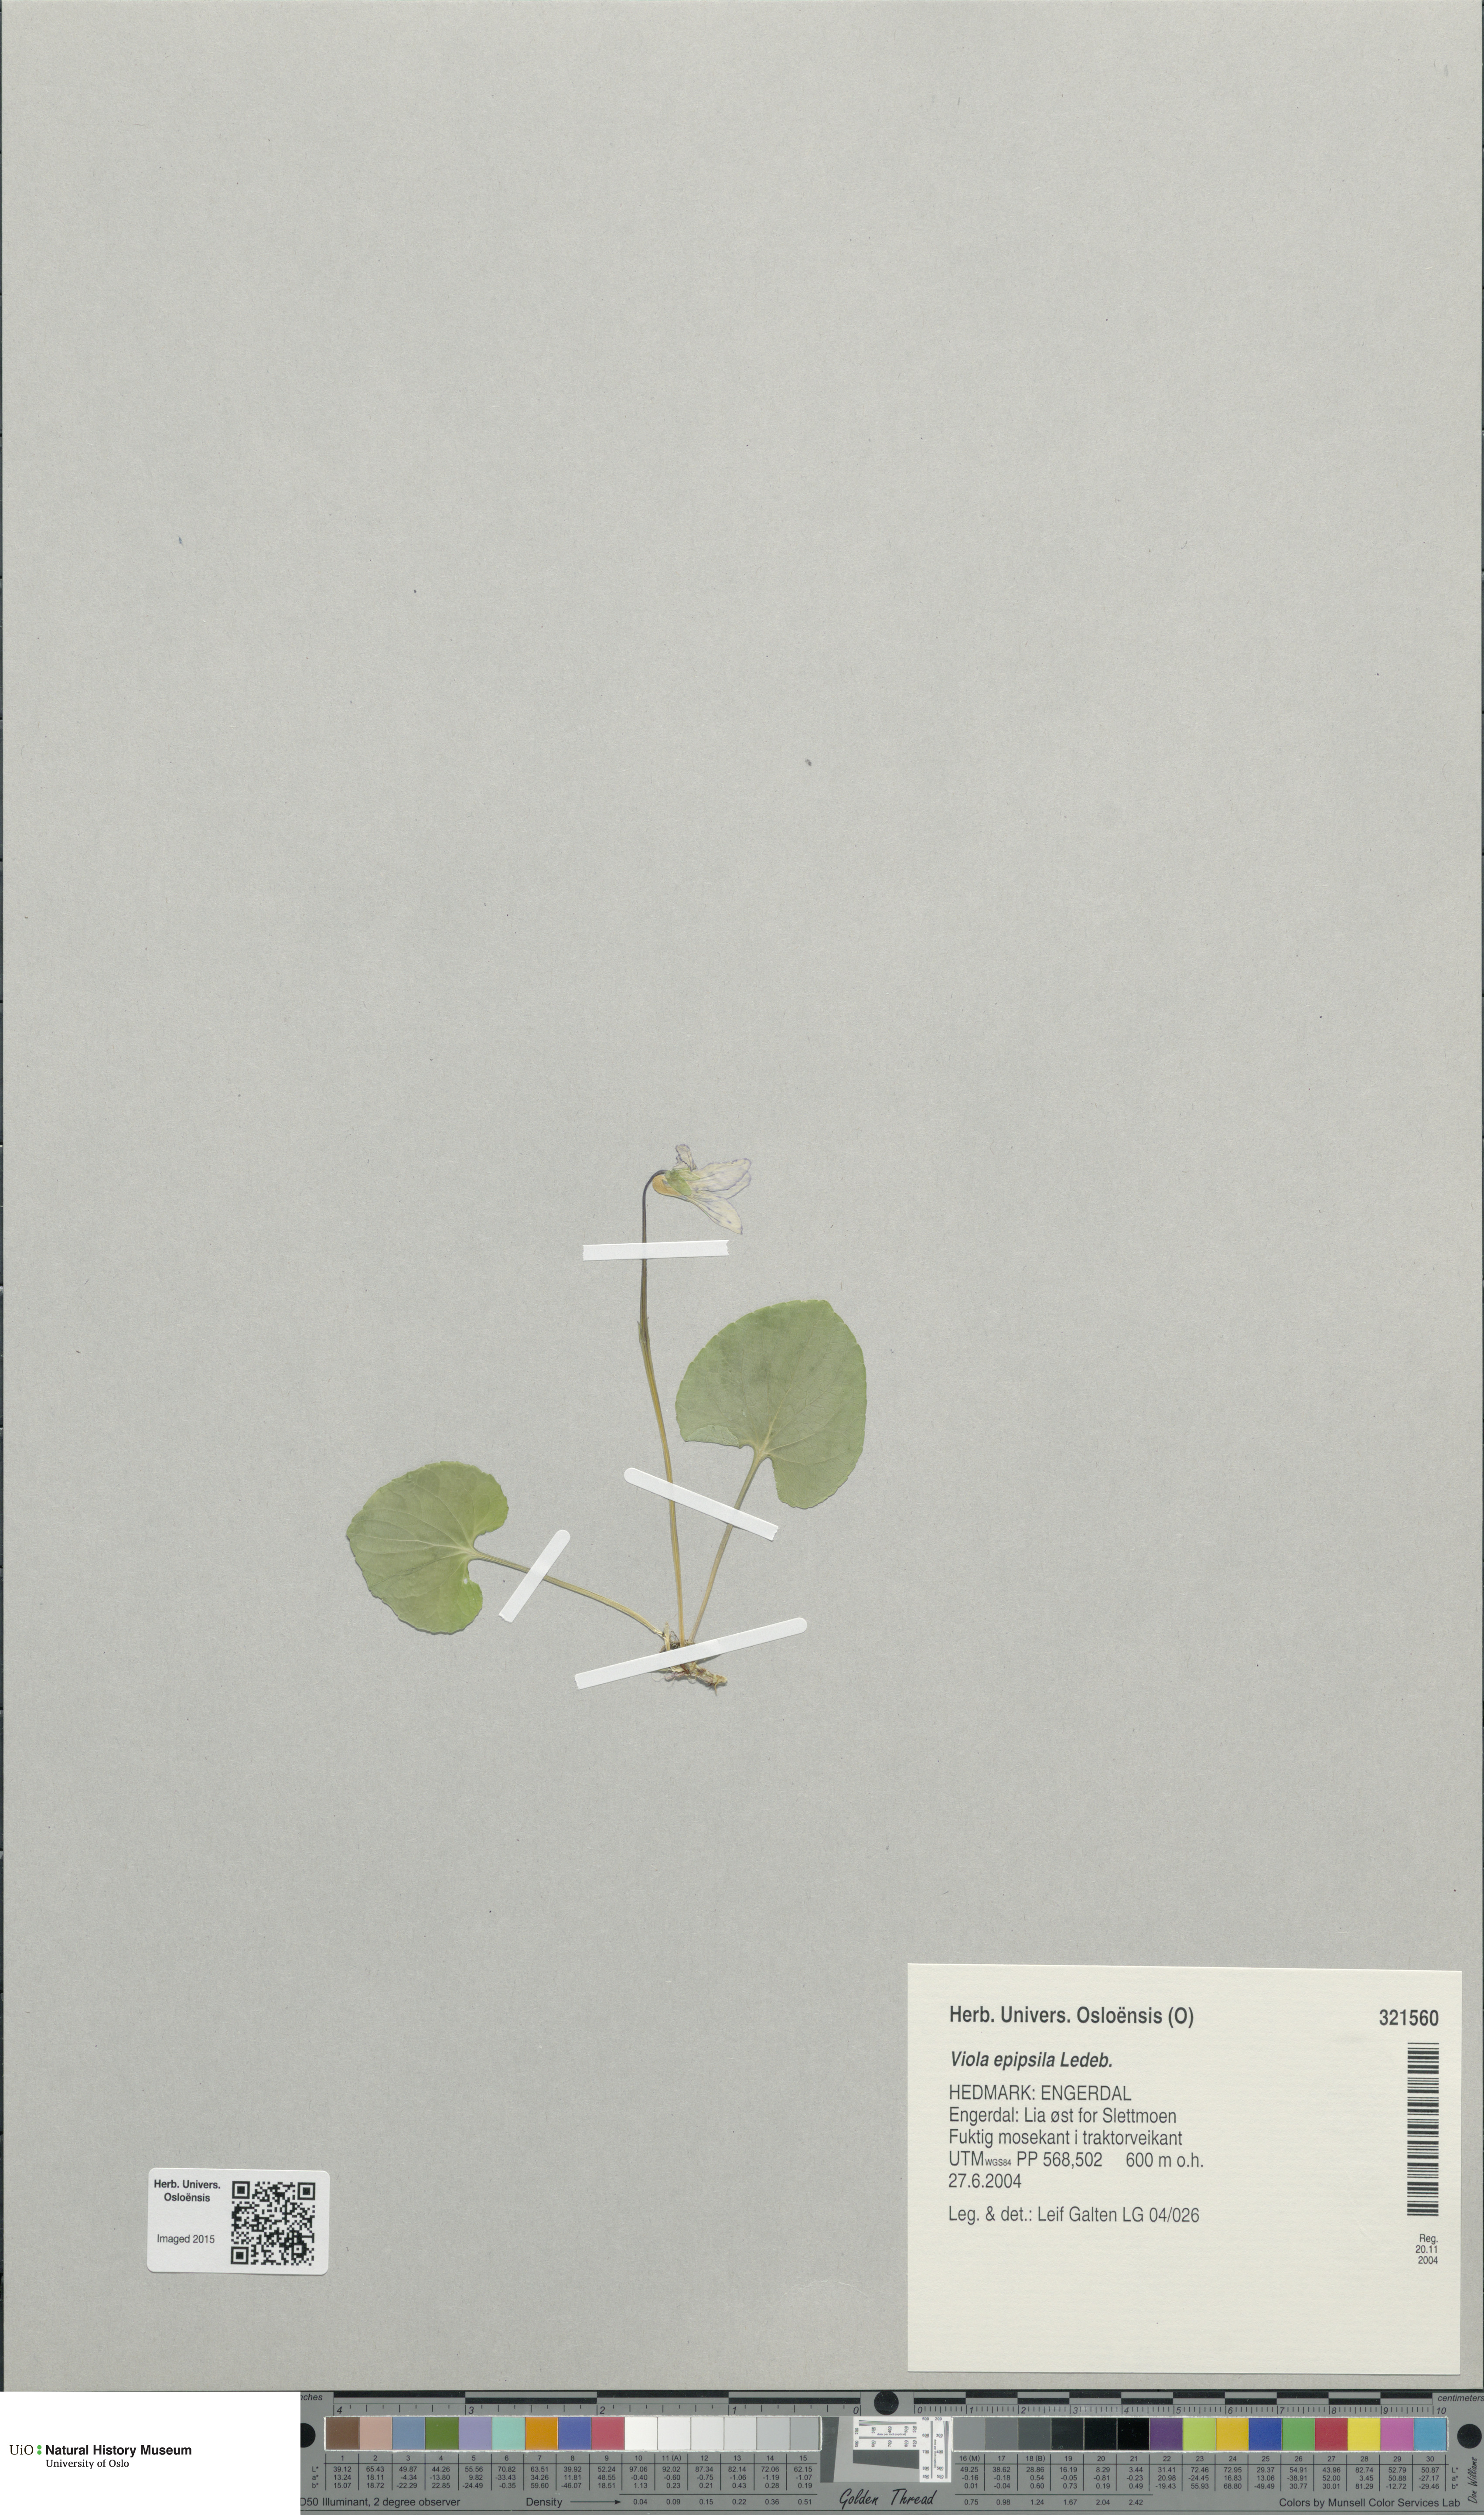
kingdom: Plantae
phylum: Tracheophyta
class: Magnoliopsida
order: Malpighiales
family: Violaceae
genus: Viola
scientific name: Viola epipsila
